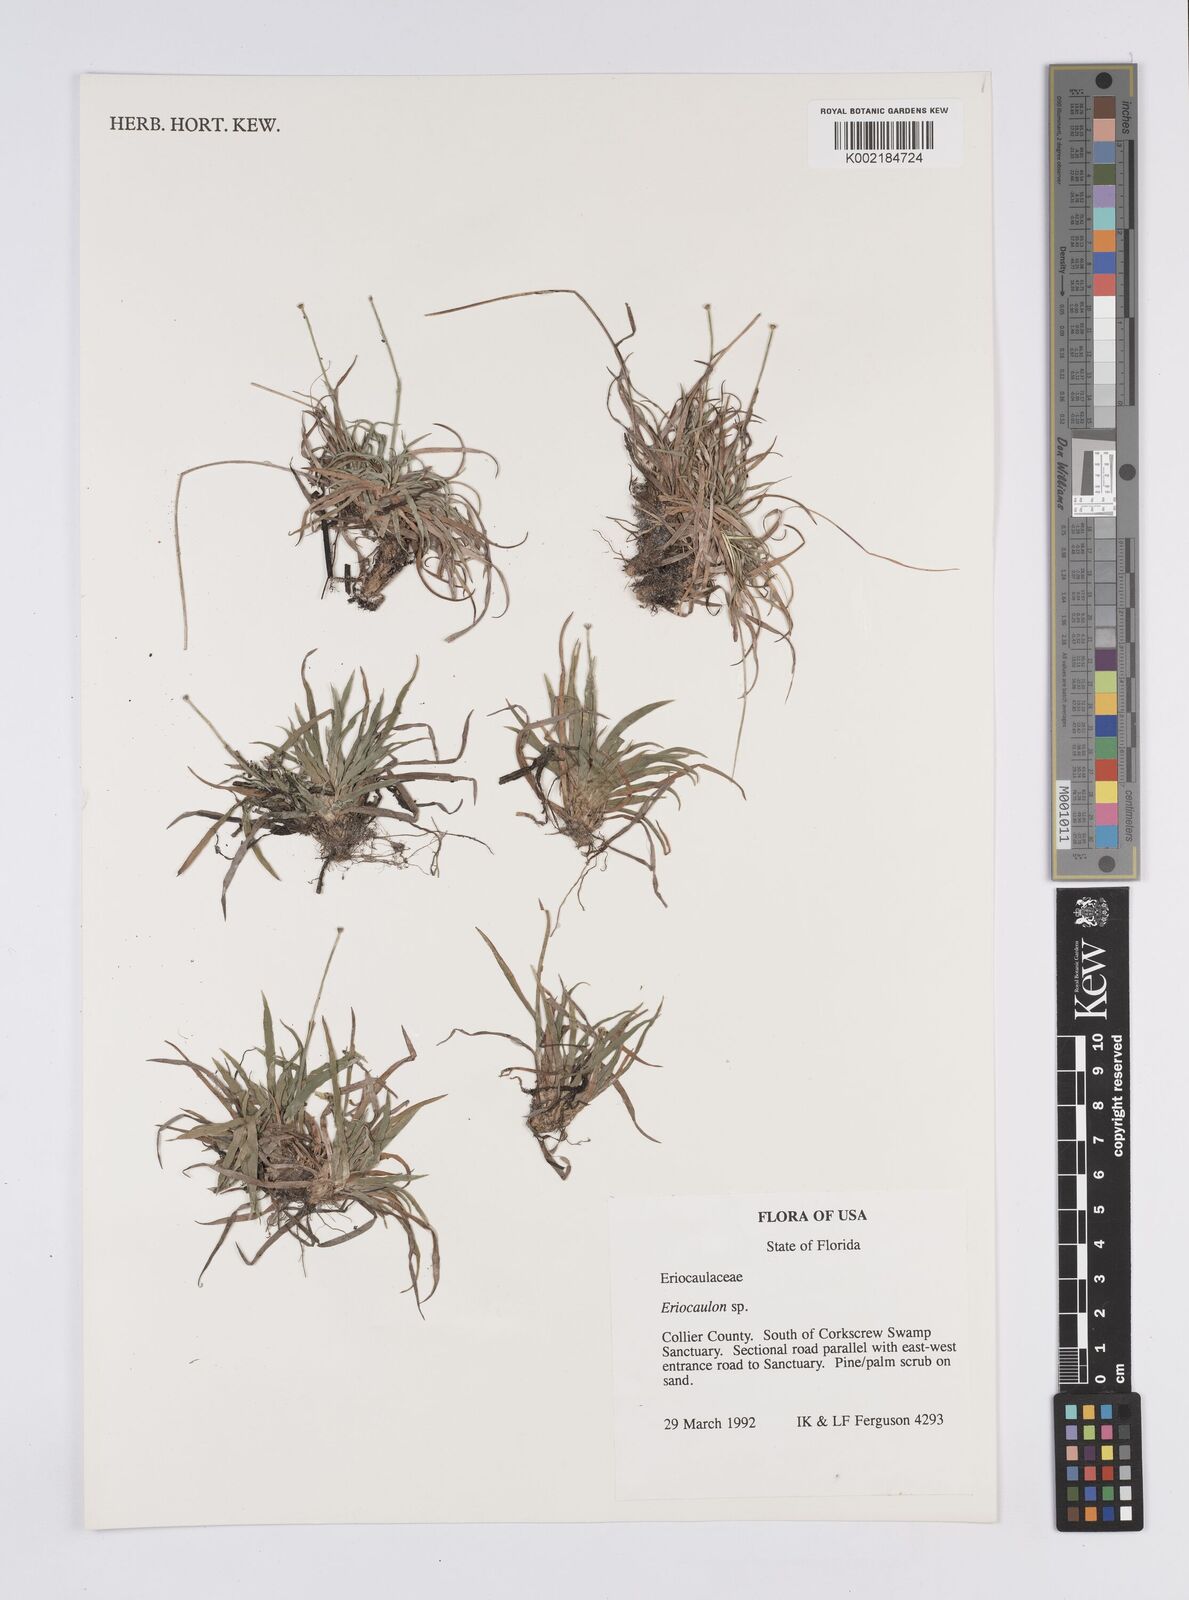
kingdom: Plantae
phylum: Tracheophyta
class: Liliopsida
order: Poales
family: Eriocaulaceae
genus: Eriocaulon
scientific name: Eriocaulon
